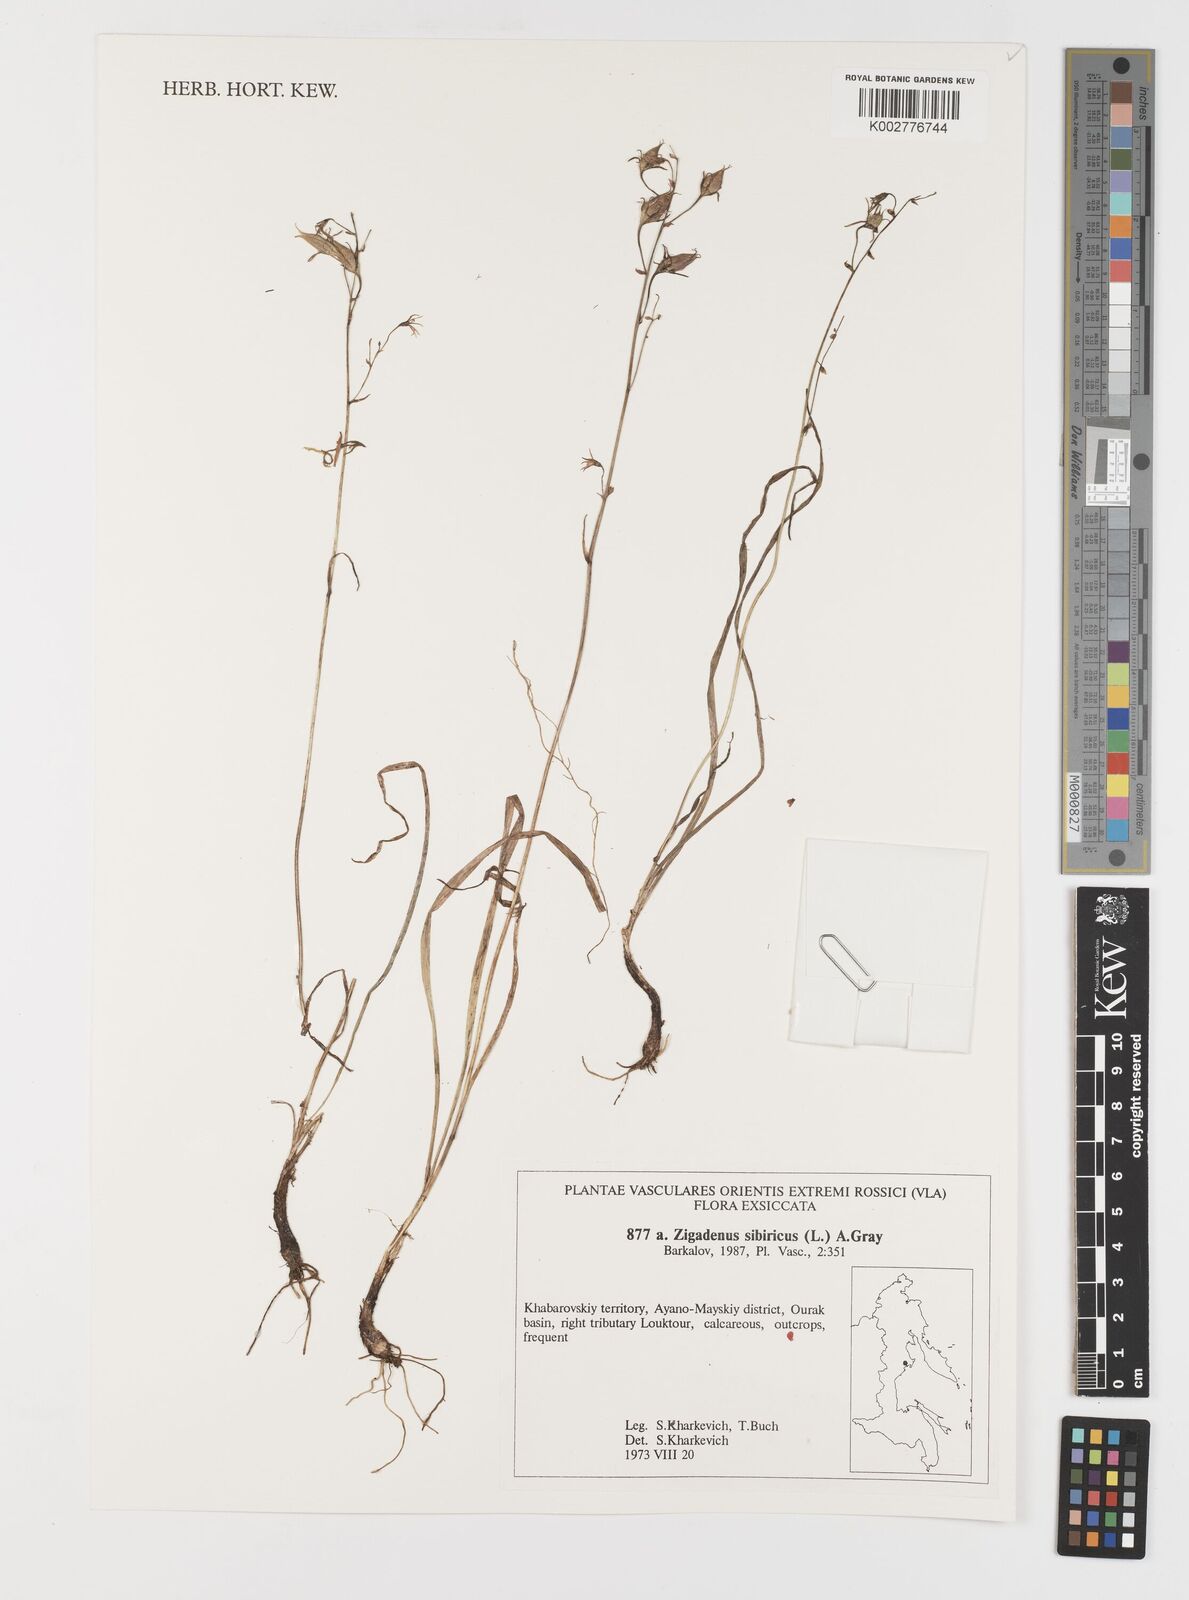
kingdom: Plantae
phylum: Tracheophyta
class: Liliopsida
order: Liliales
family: Melanthiaceae
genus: Anticlea
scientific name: Anticlea sibirica
